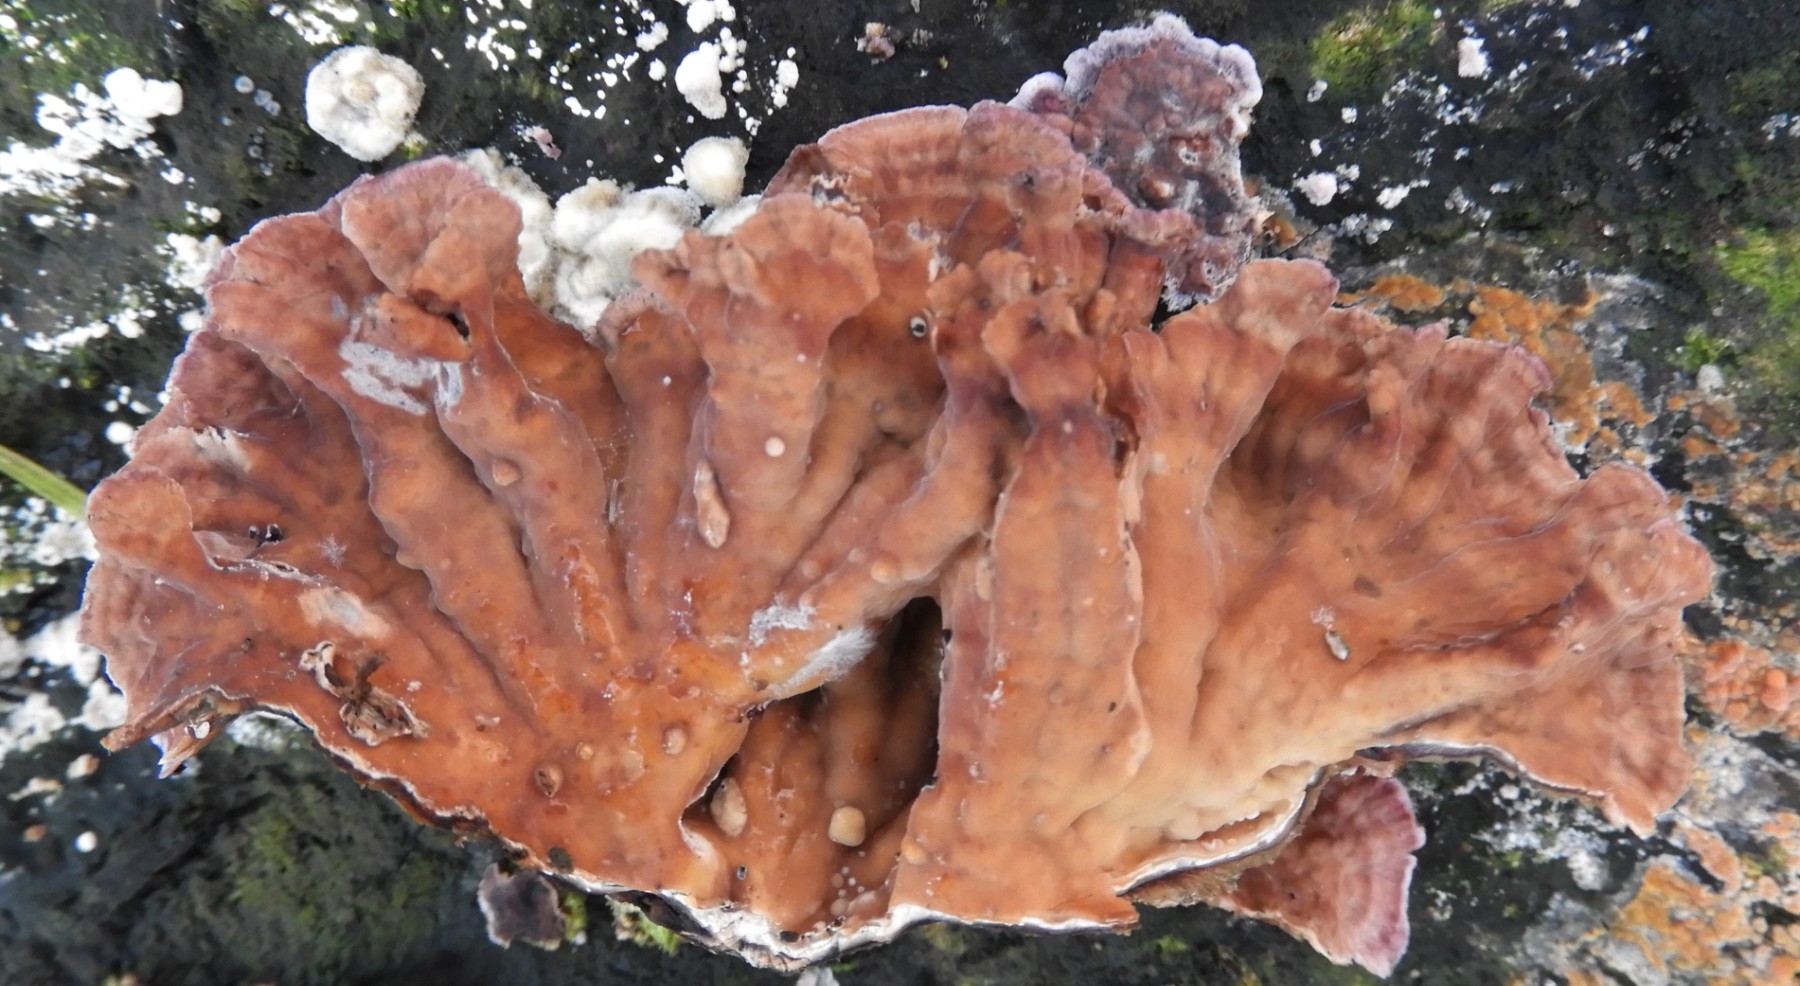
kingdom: Fungi
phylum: Basidiomycota
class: Agaricomycetes
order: Agaricales
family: Cyphellaceae
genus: Chondrostereum
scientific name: Chondrostereum purpureum
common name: purpurlædersvamp
